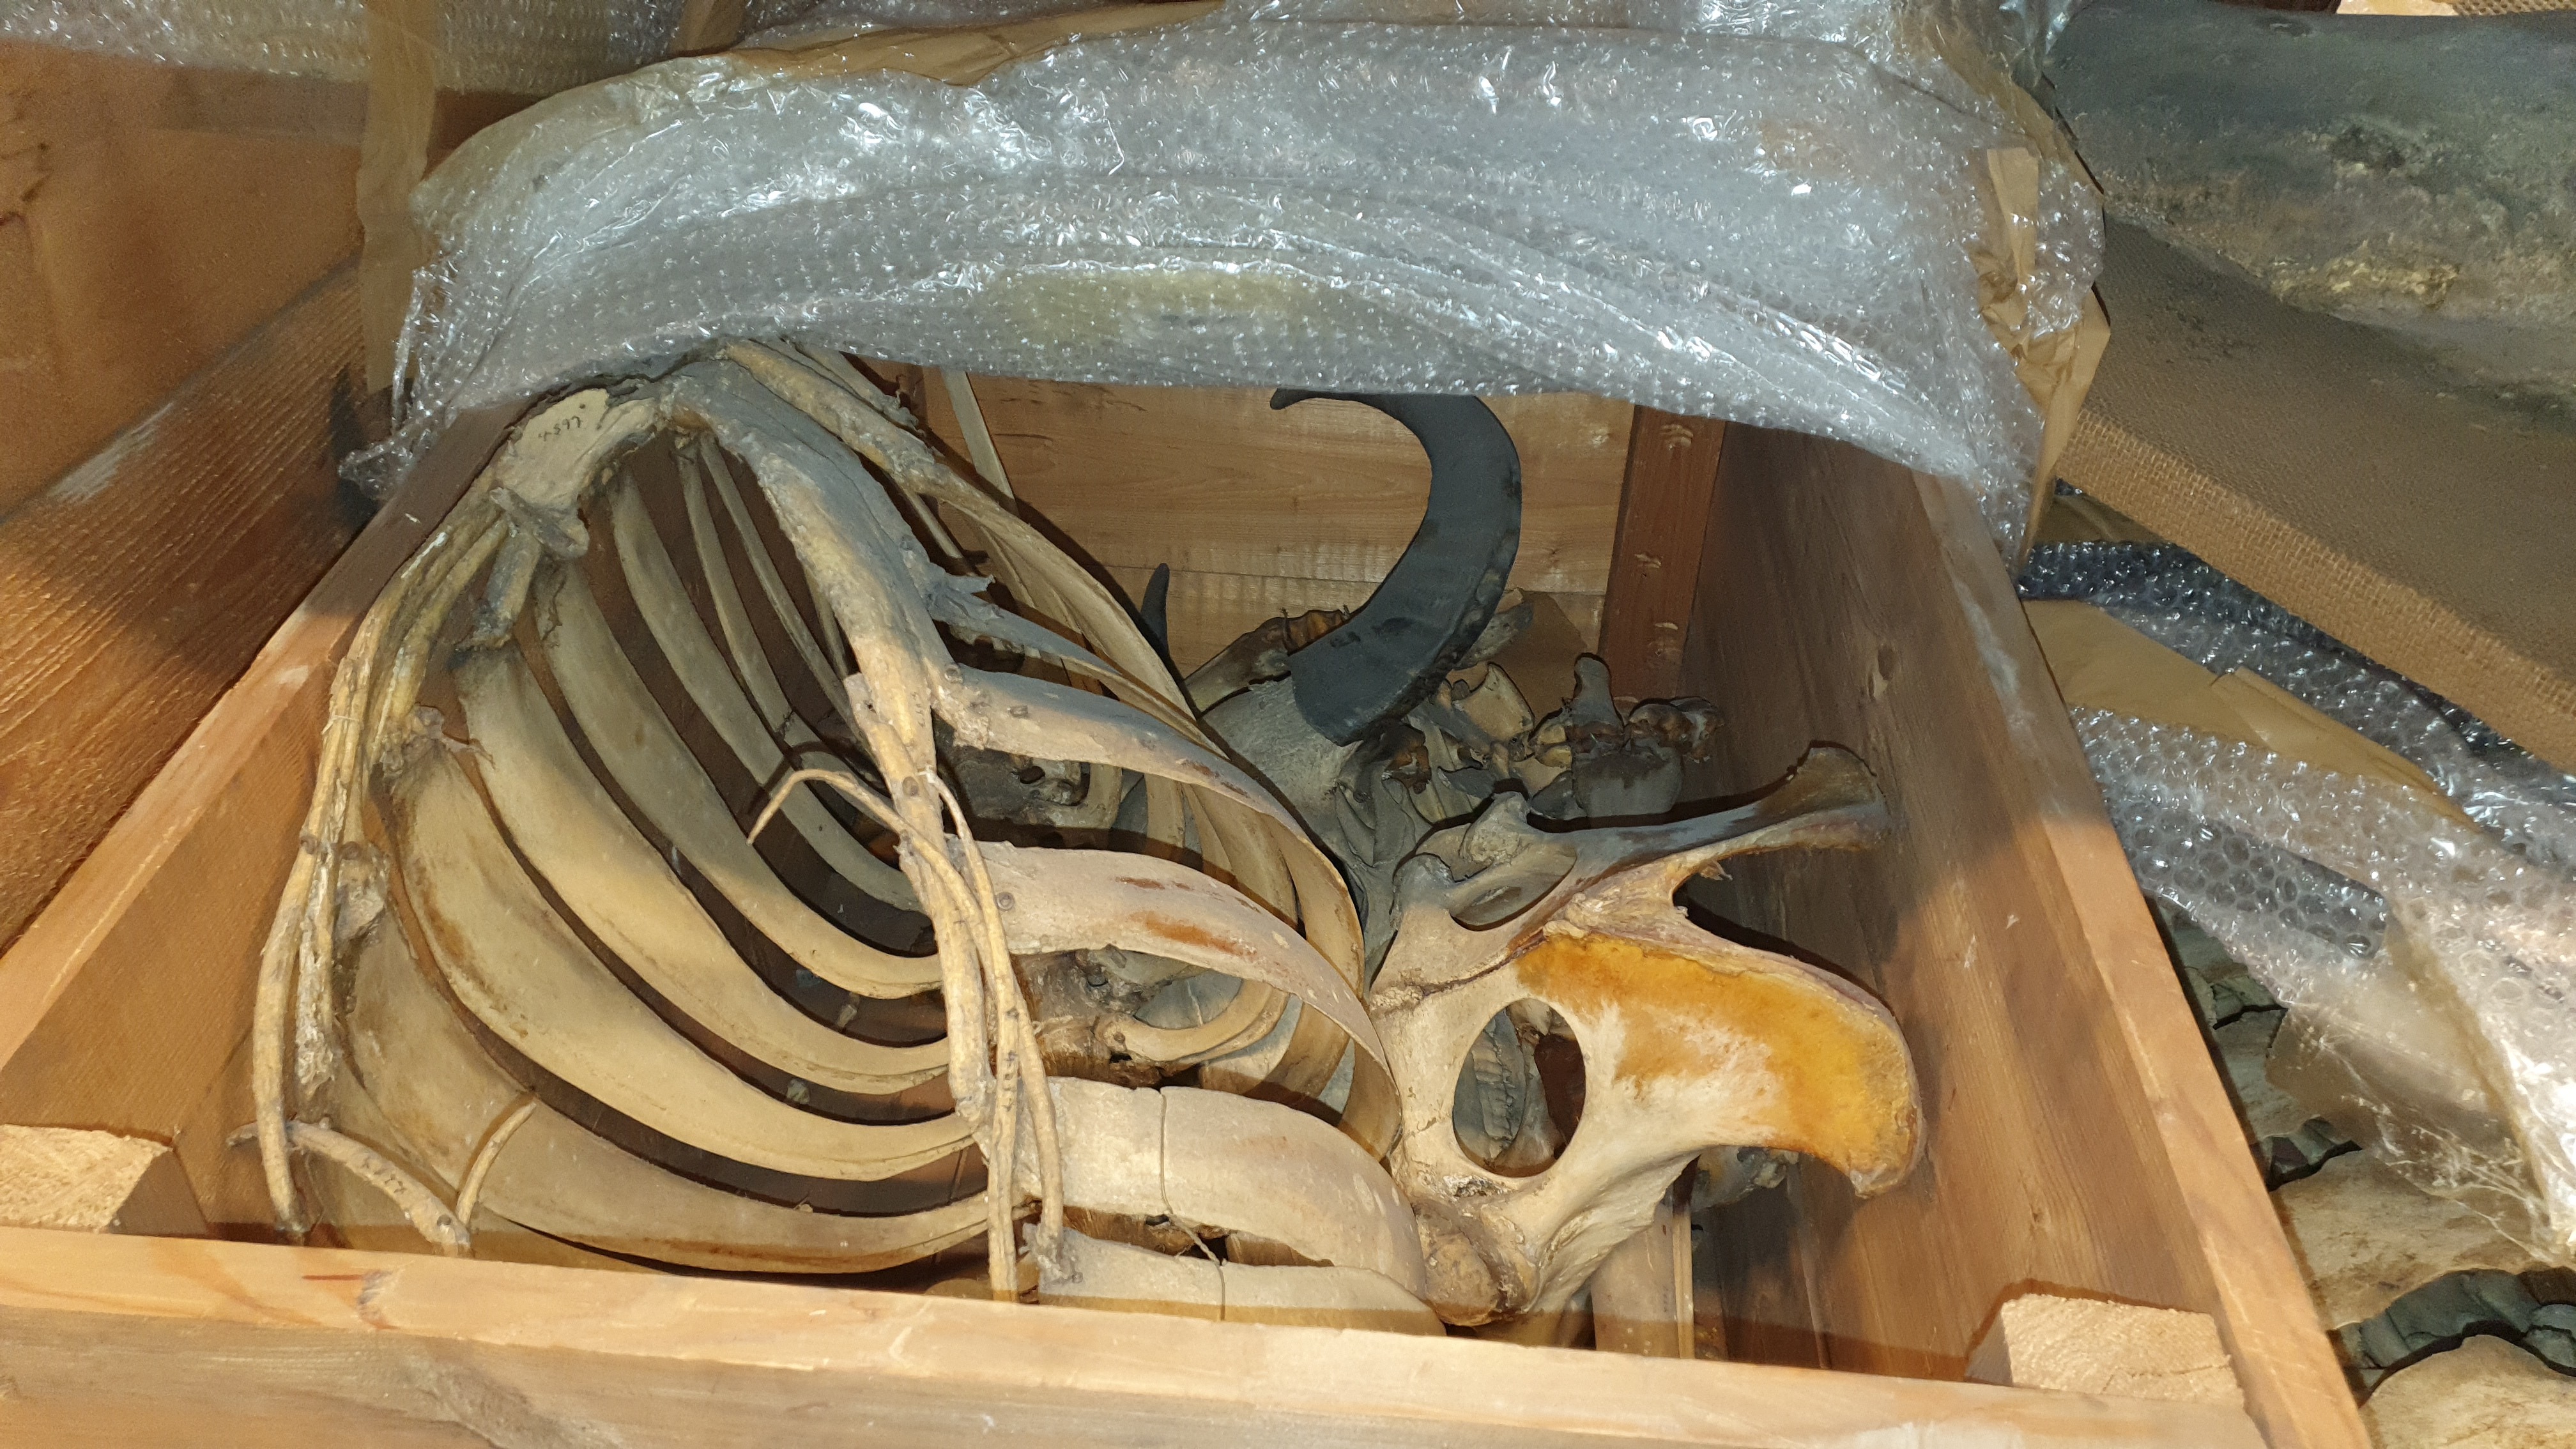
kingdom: Animalia
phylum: Chordata
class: Mammalia
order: Artiodactyla
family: Bovidae
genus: Bubalus
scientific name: Bubalus bubalis
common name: Water buffalo
